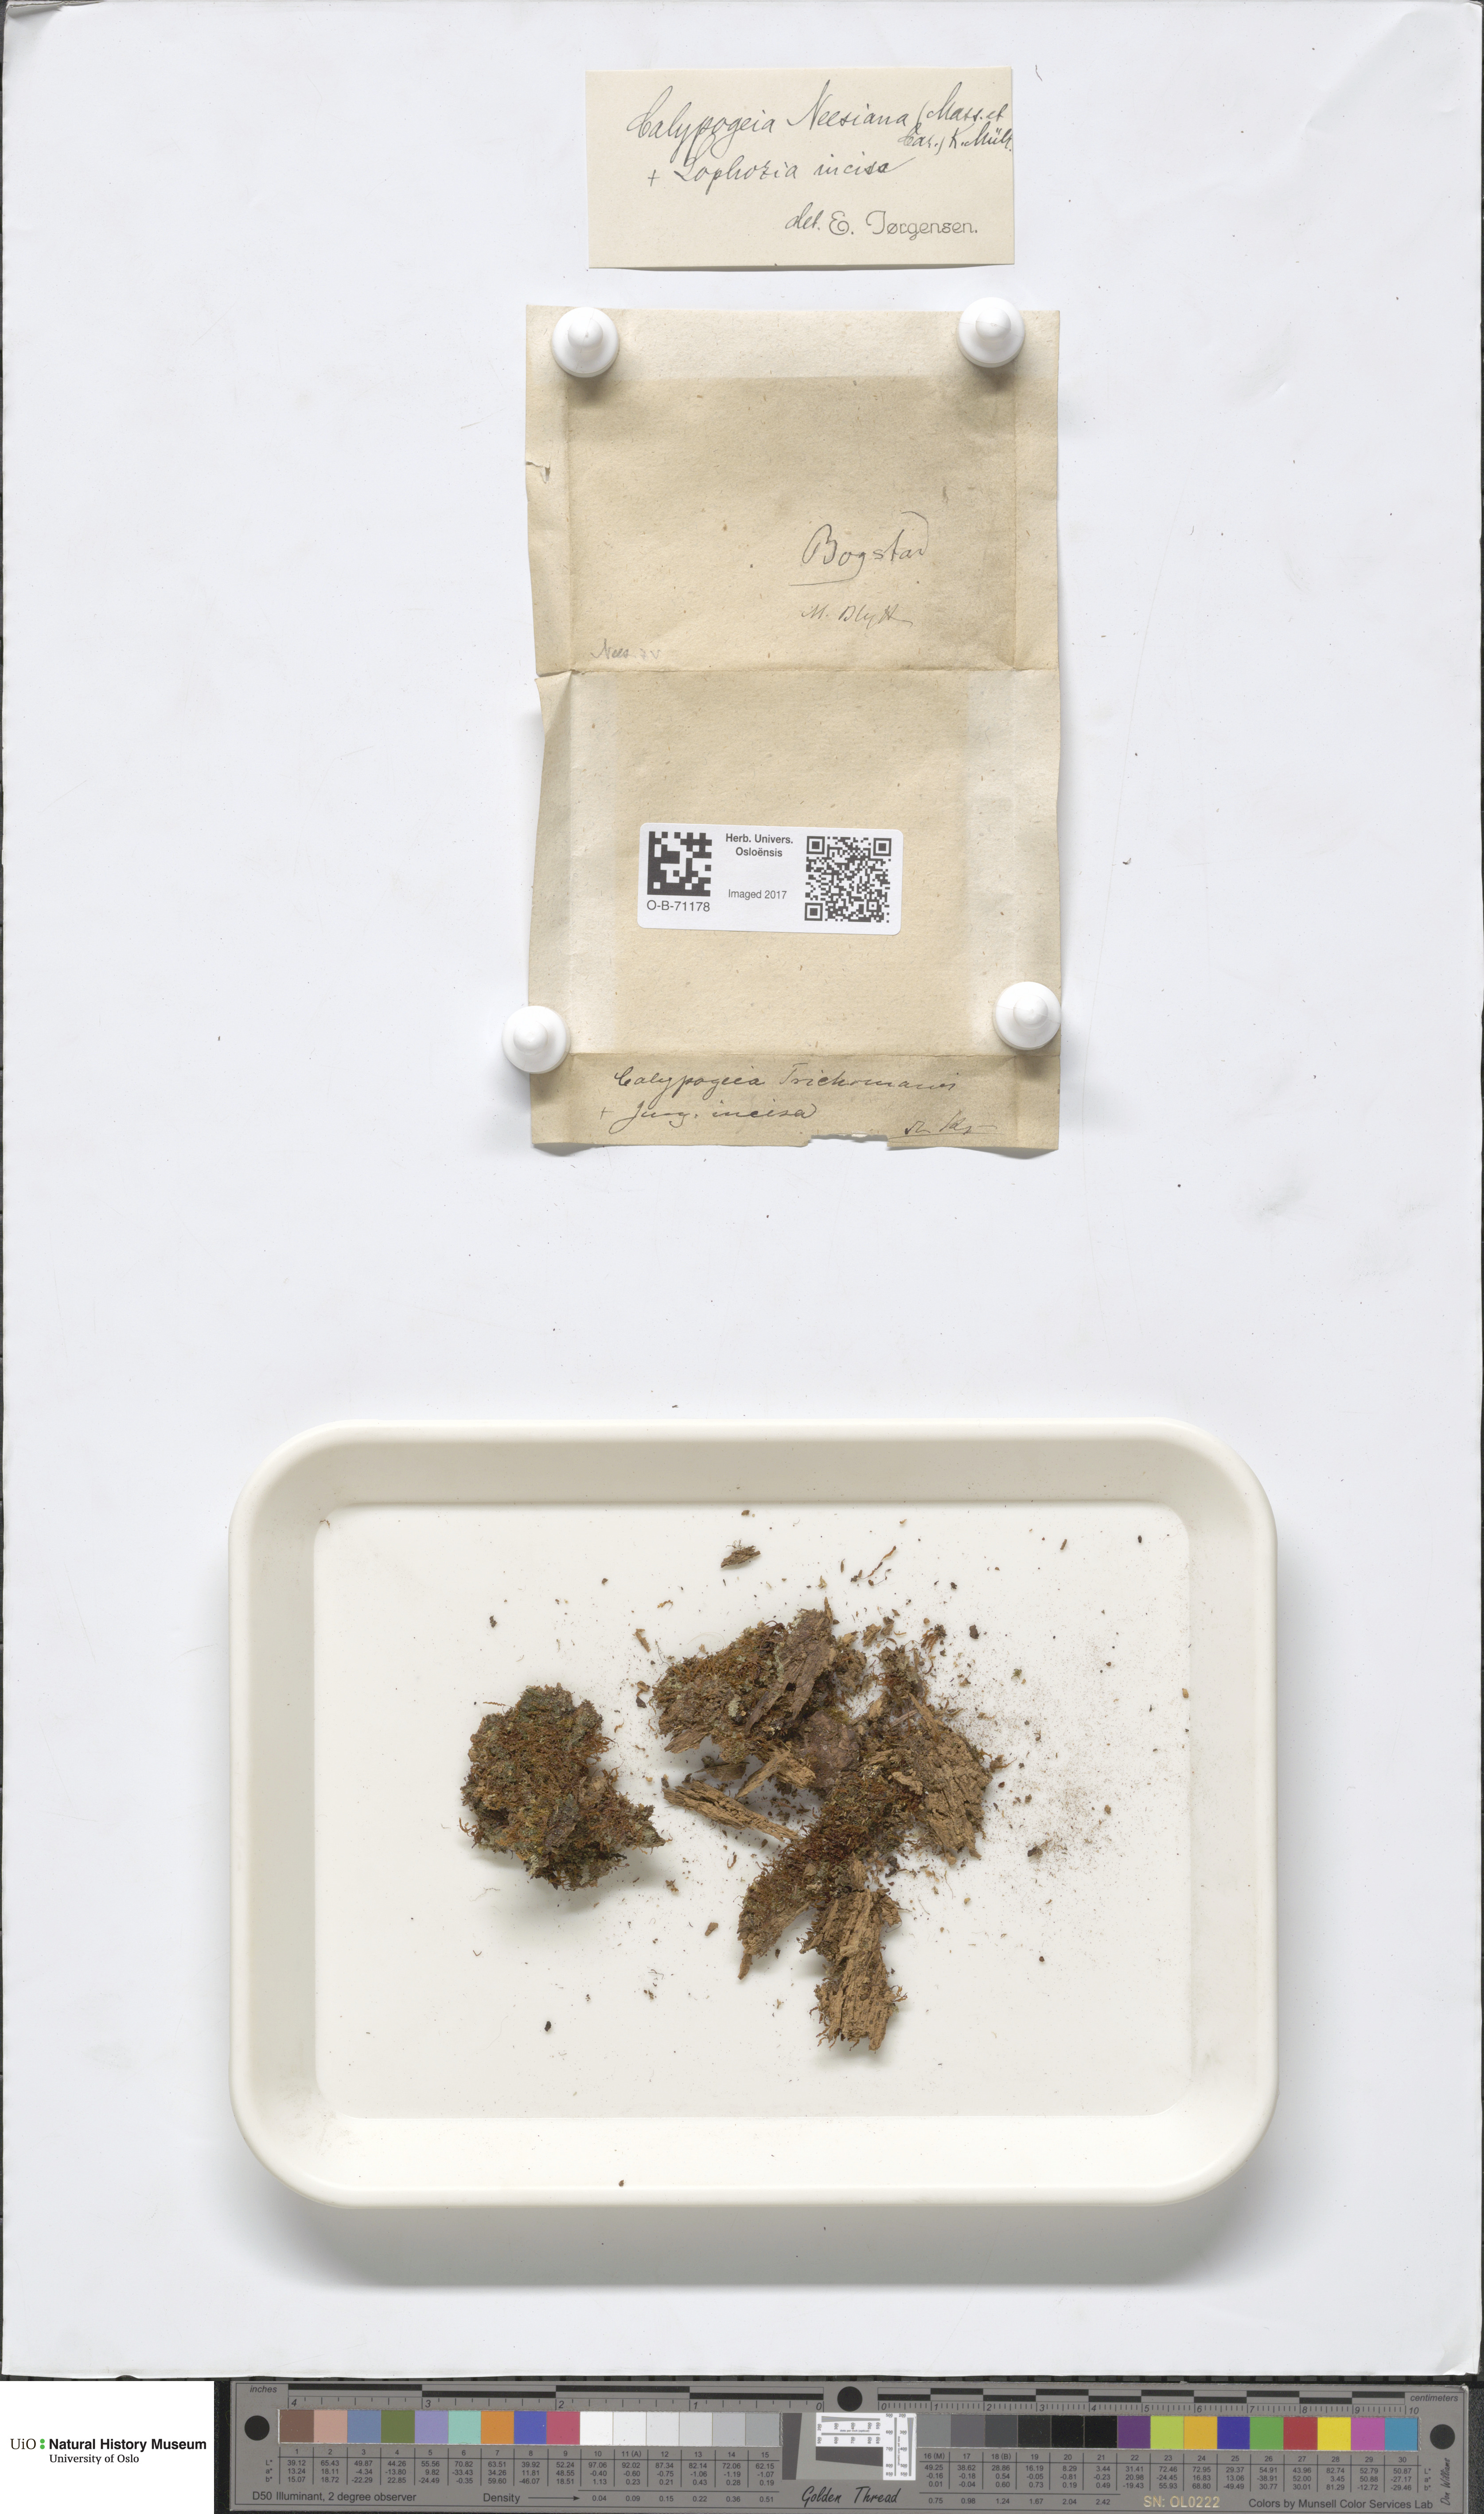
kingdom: Plantae
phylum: Marchantiophyta
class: Jungermanniopsida
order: Jungermanniales
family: Calypogeiaceae
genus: Calypogeia
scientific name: Calypogeia neesiana
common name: Nees  pouchwort
